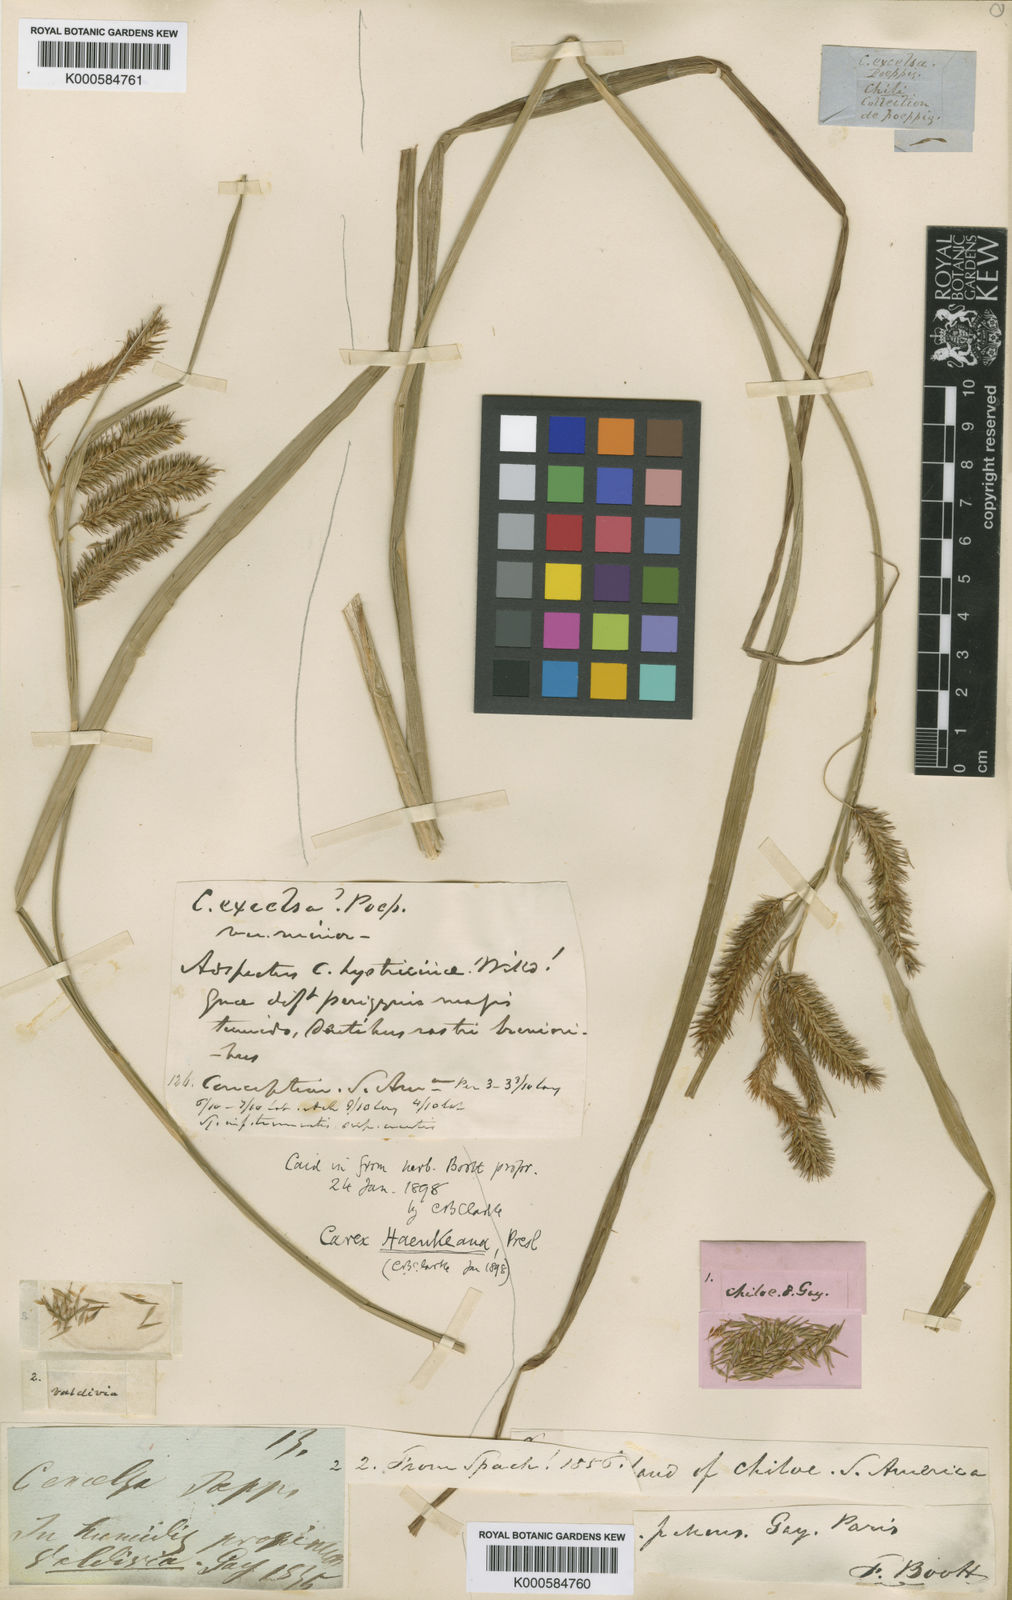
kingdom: Plantae
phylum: Tracheophyta
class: Liliopsida
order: Poales
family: Cyperaceae
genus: Carex
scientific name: Carex pseudocyperus
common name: Cyperus sedge
